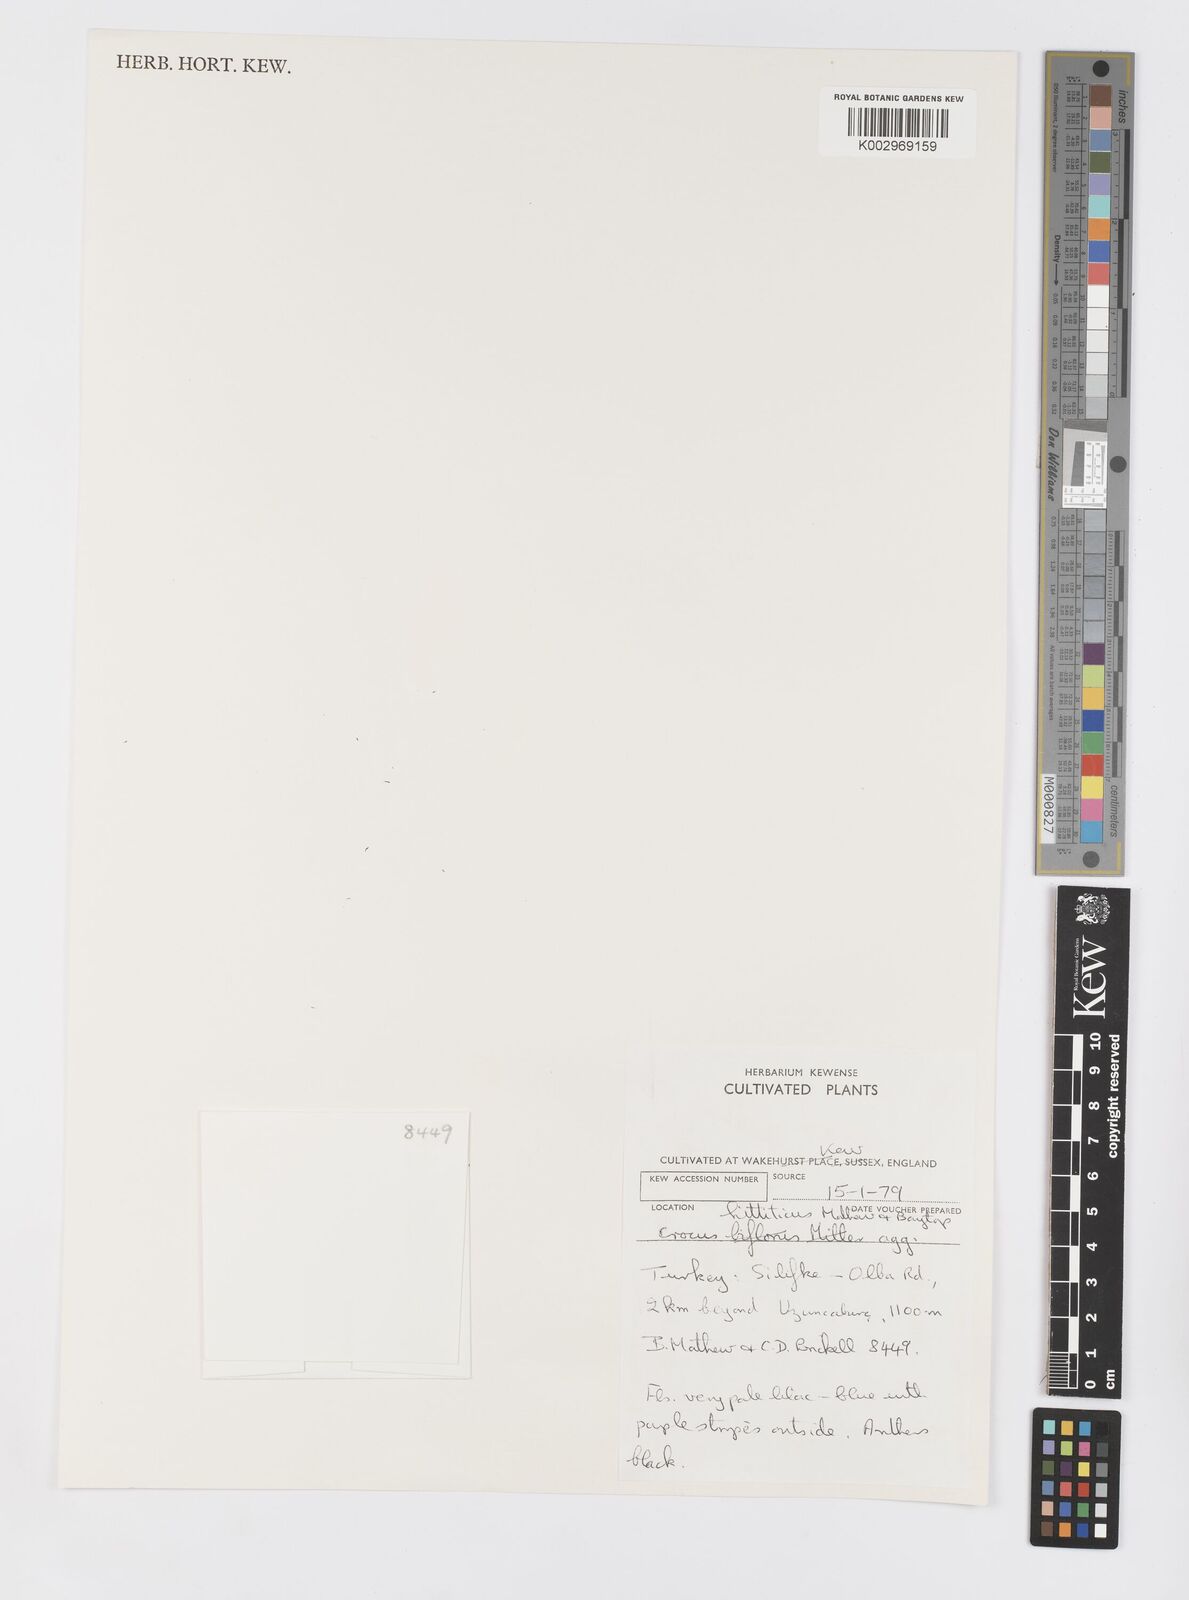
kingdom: Plantae
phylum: Tracheophyta
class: Liliopsida
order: Asparagales
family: Iridaceae
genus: Crocus
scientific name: Crocus hittiticus
